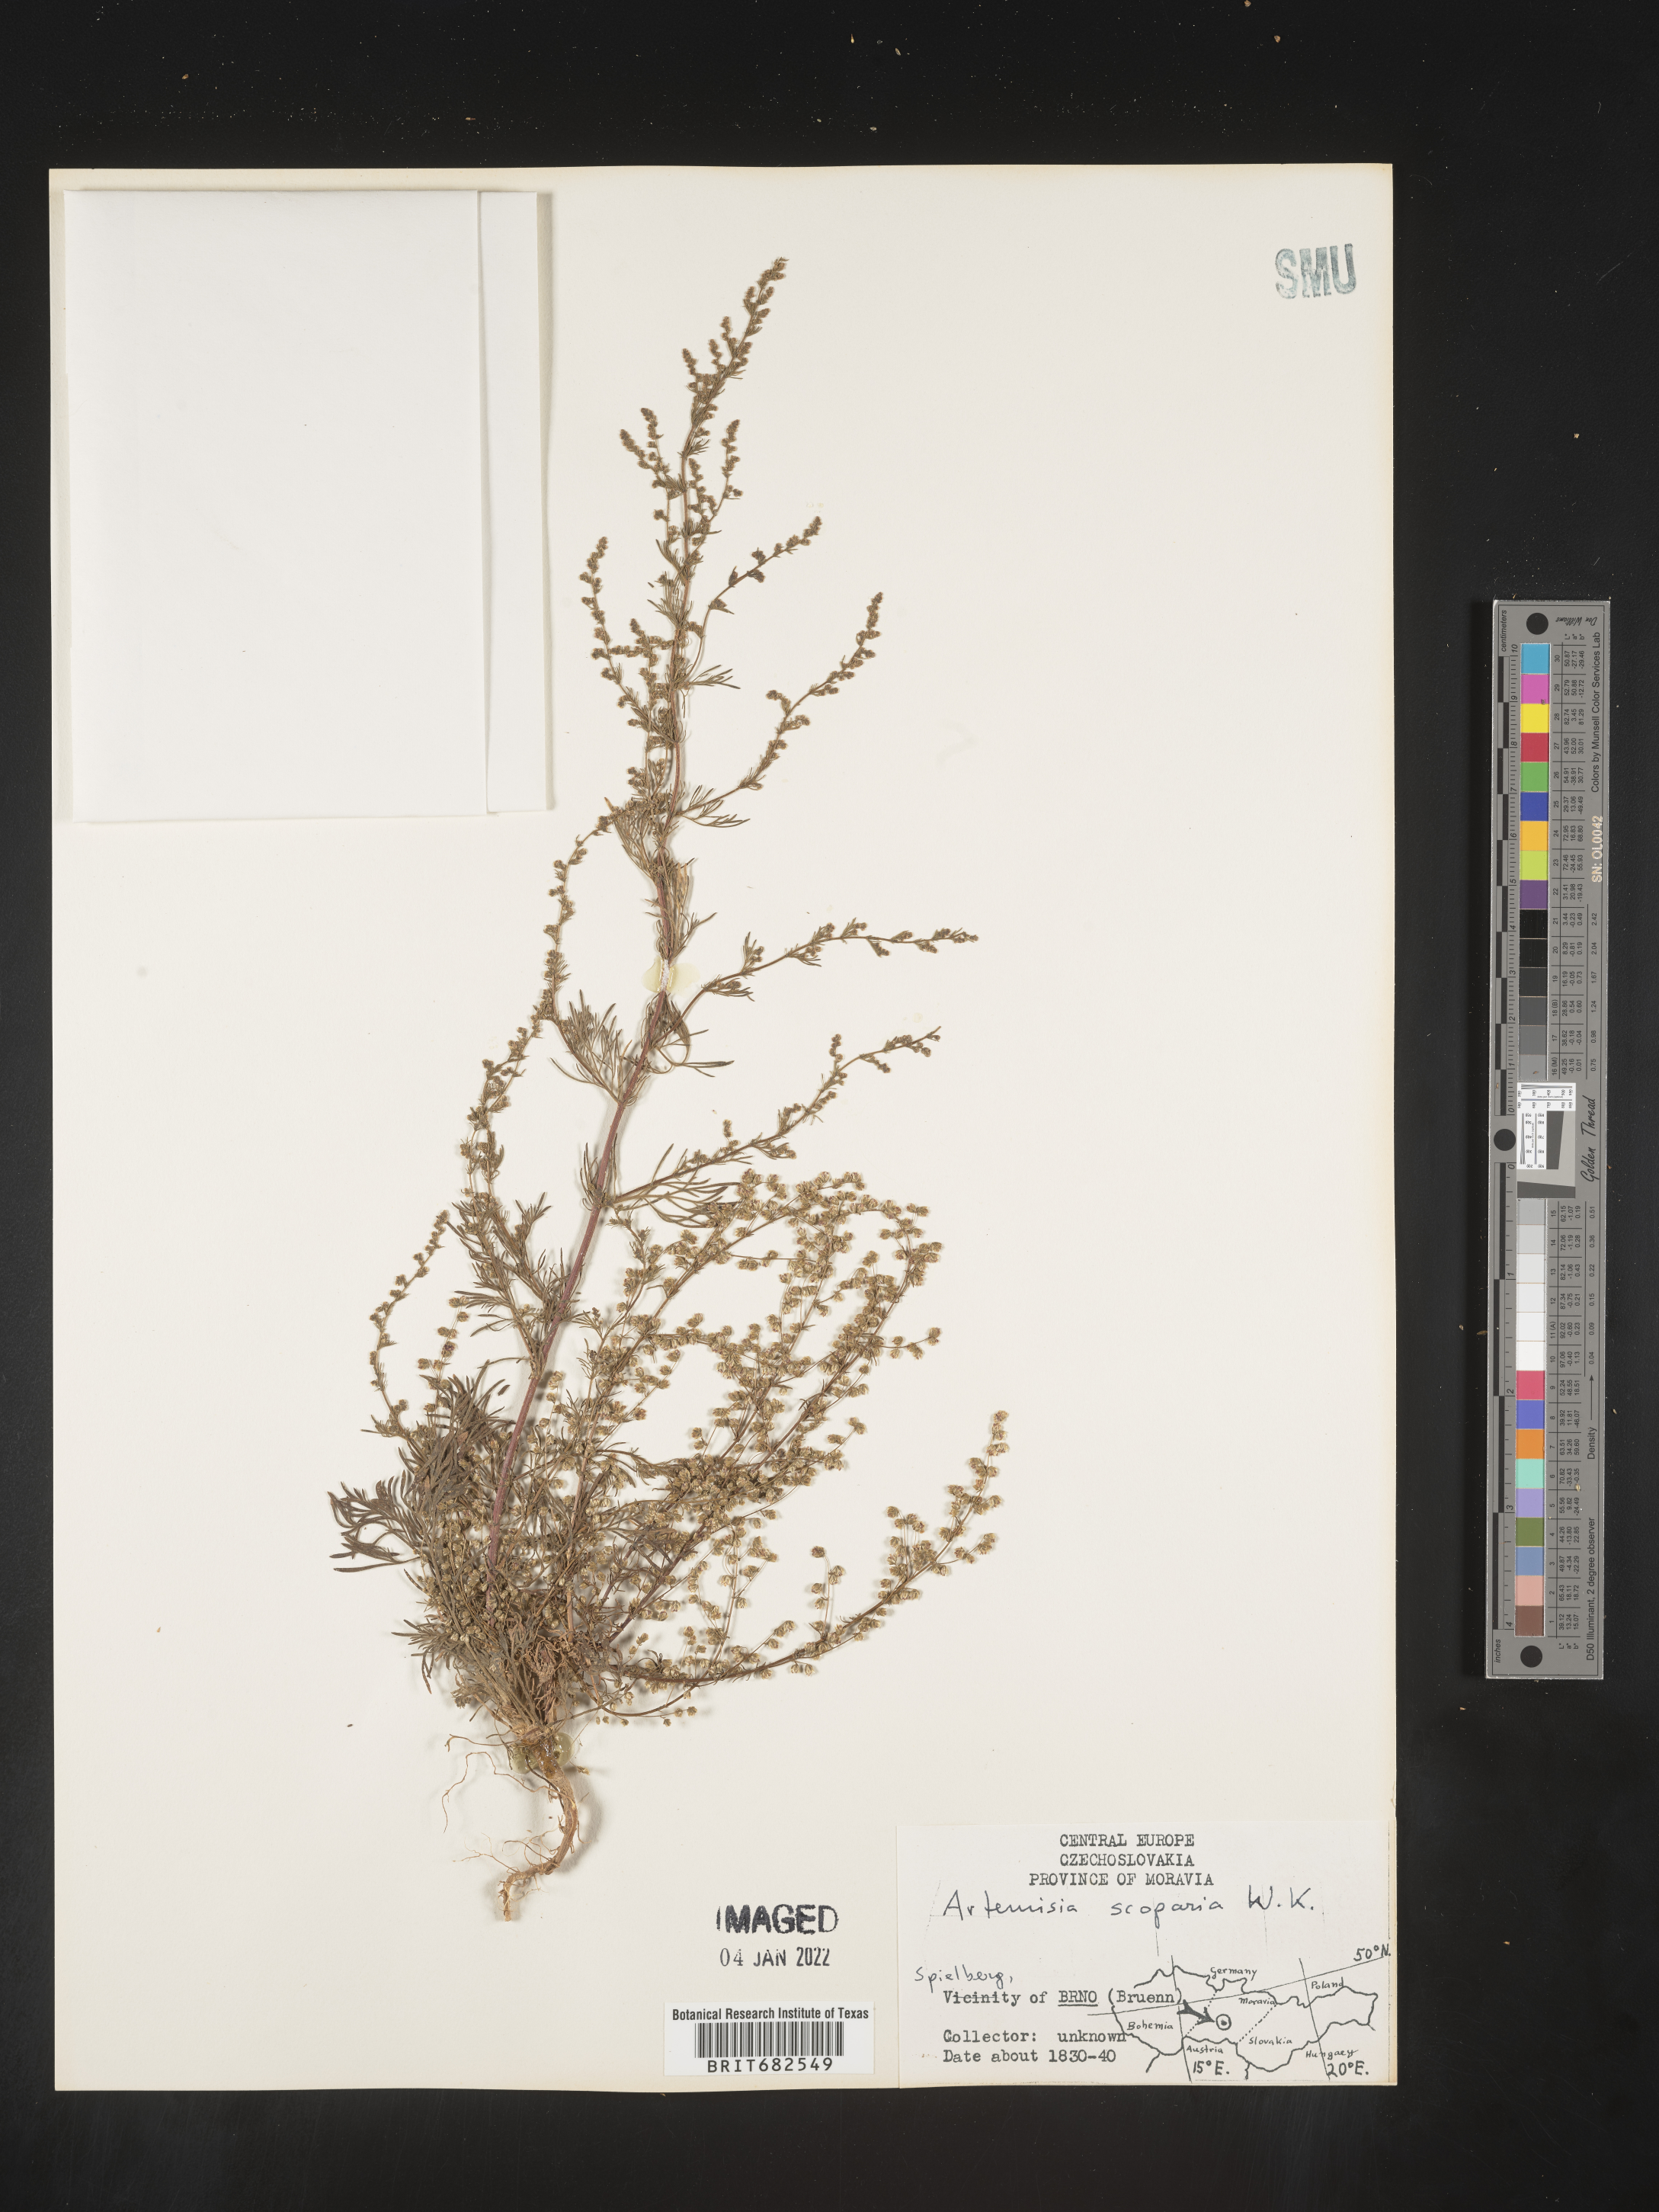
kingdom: Plantae
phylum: Tracheophyta
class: Magnoliopsida
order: Asterales
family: Asteraceae
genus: Artemisia
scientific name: Artemisia
